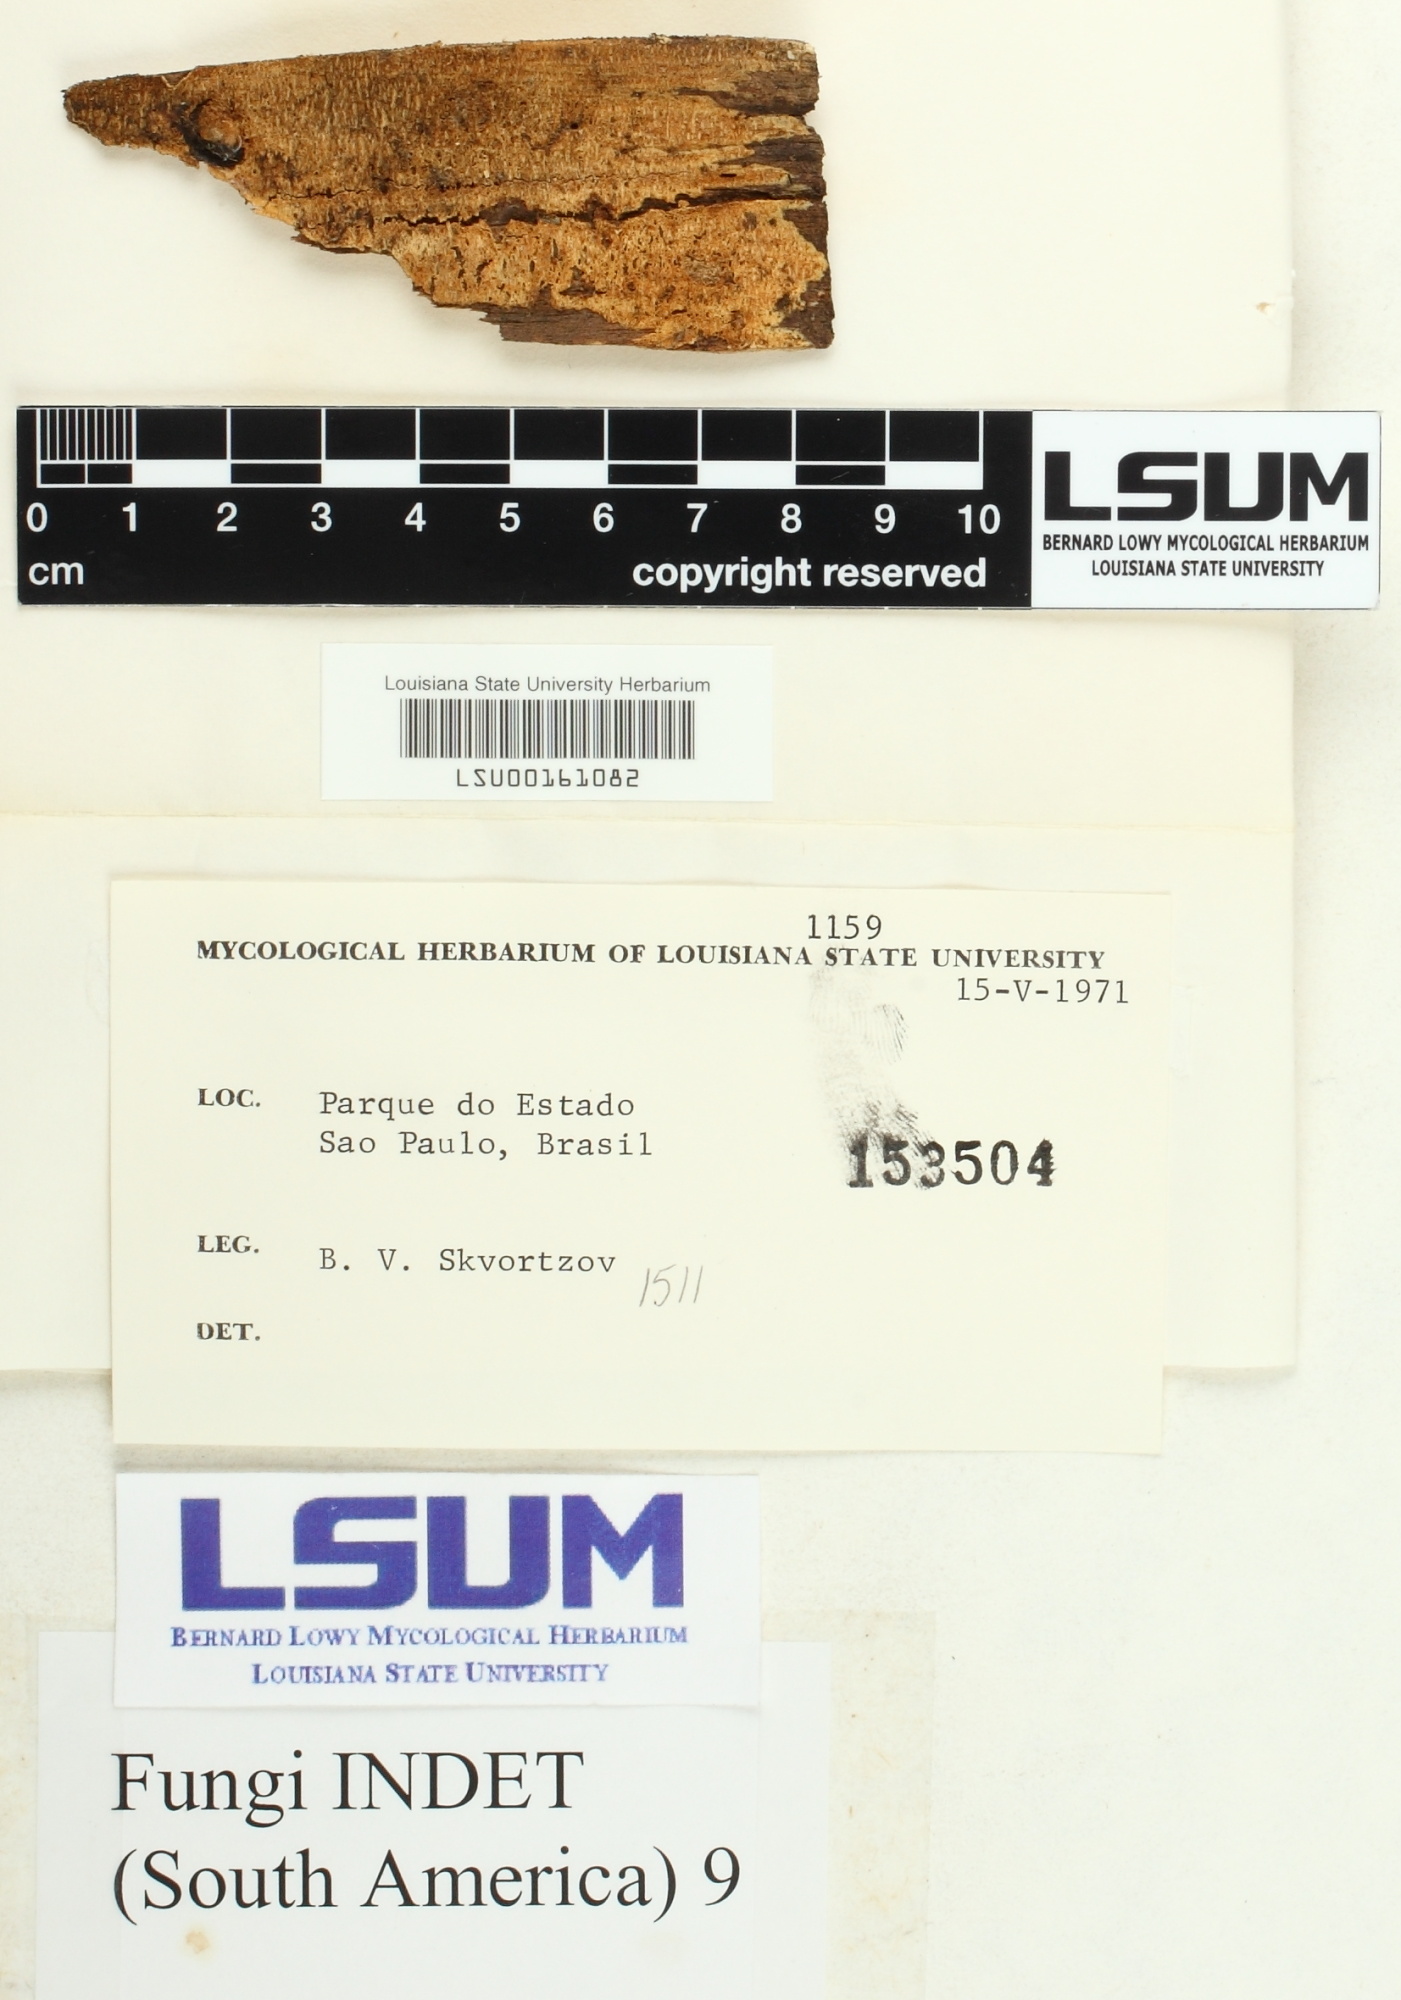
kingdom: Fungi
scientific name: Fungi
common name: Fungi
